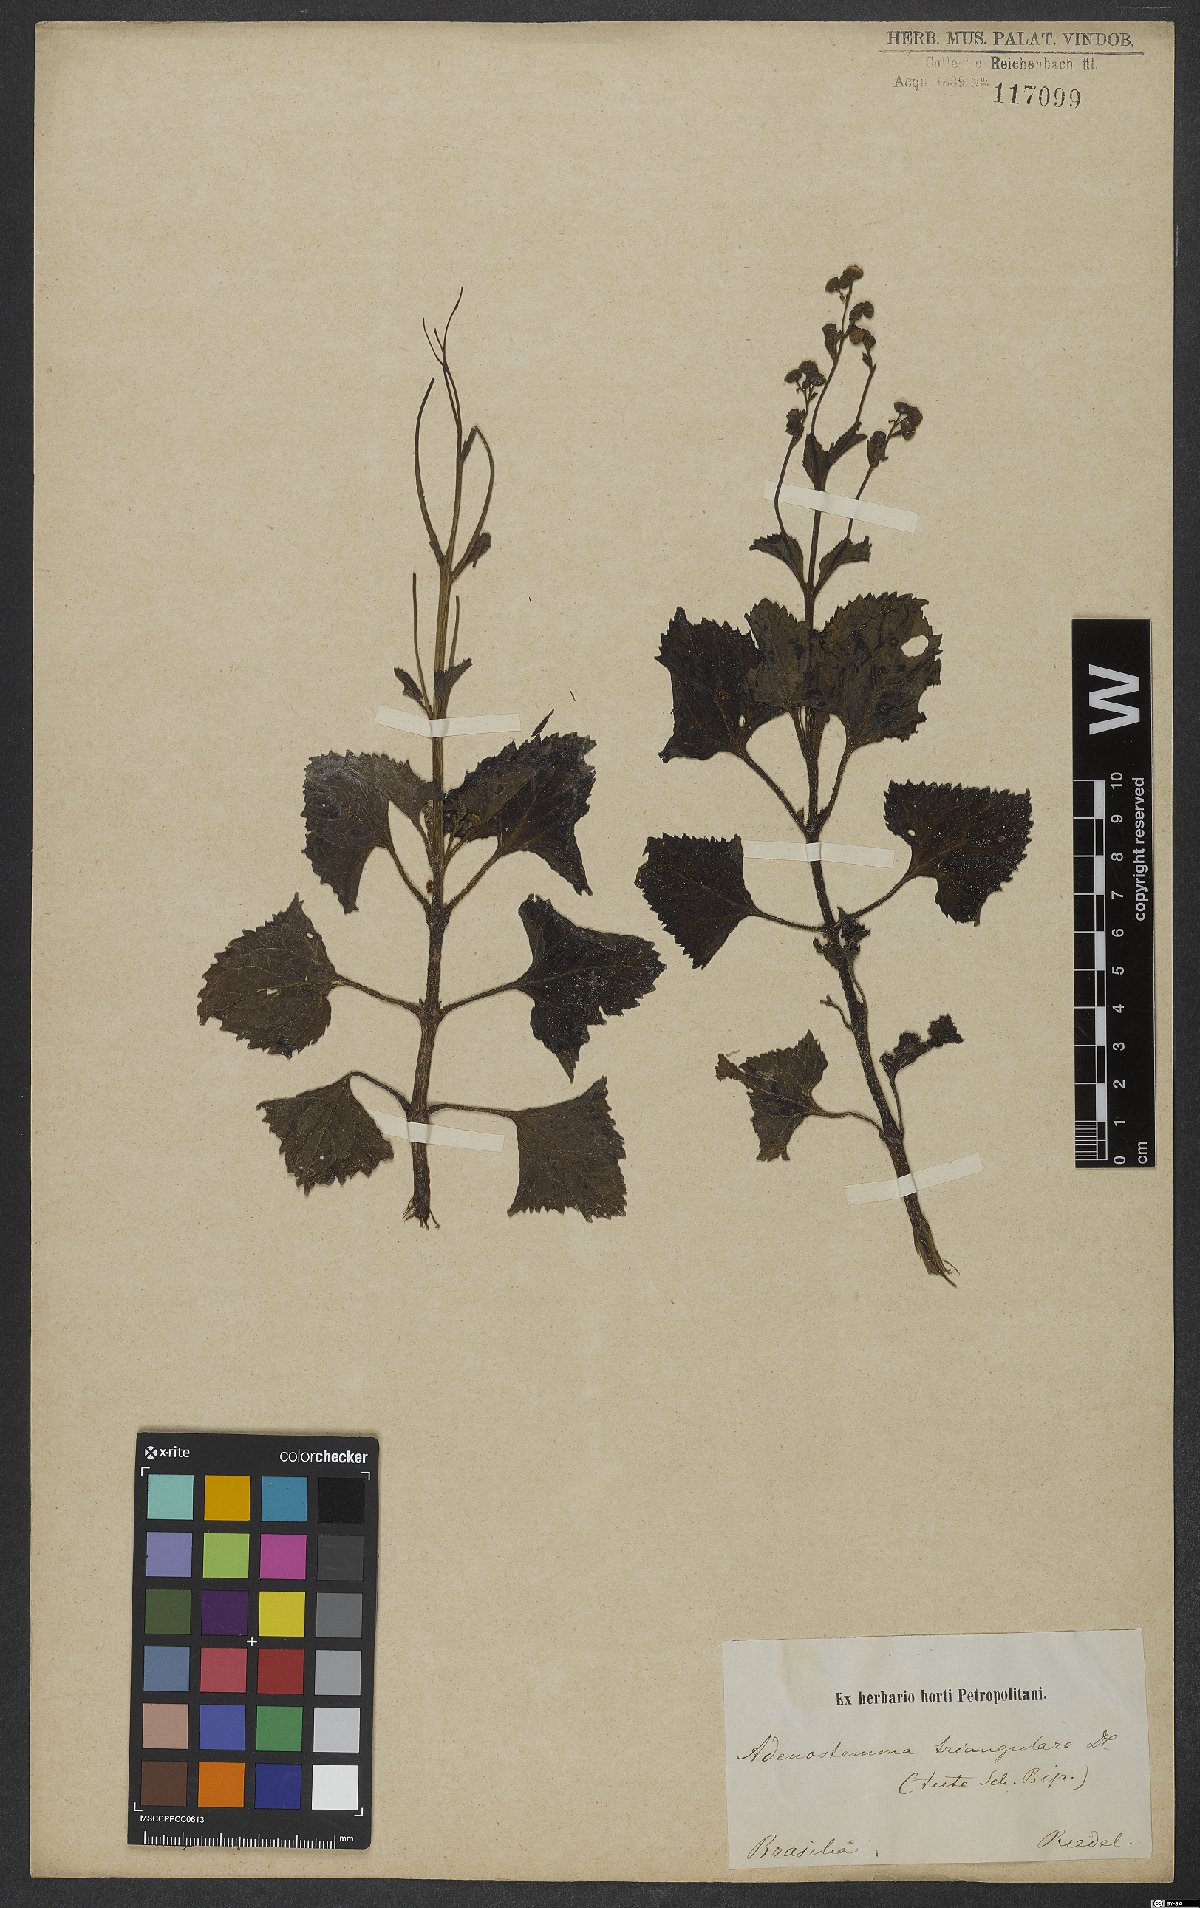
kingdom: Plantae
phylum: Tracheophyta
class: Magnoliopsida
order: Asterales
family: Asteraceae
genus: Adenostemma
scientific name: Adenostemma viscosum
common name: Dungweed
